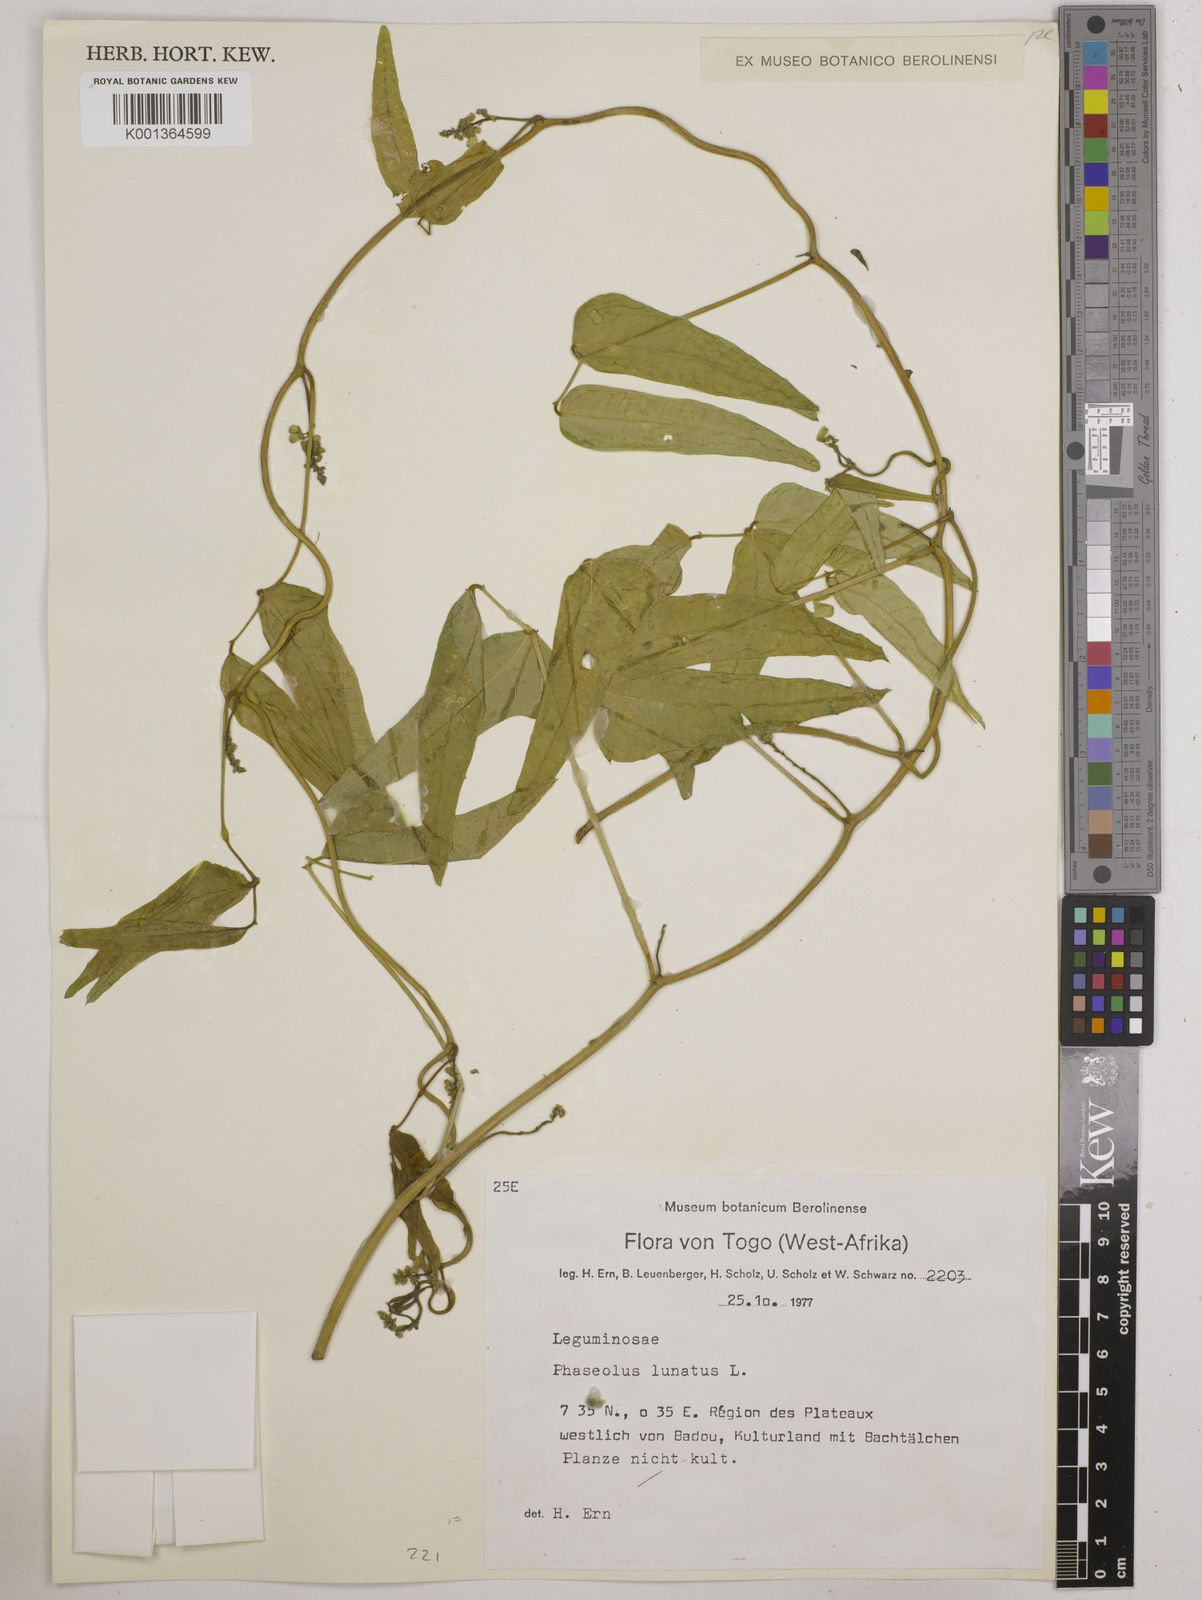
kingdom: Plantae
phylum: Tracheophyta
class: Magnoliopsida
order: Fabales
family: Fabaceae
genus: Phaseolus
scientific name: Phaseolus lunatus
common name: Sieva bean
